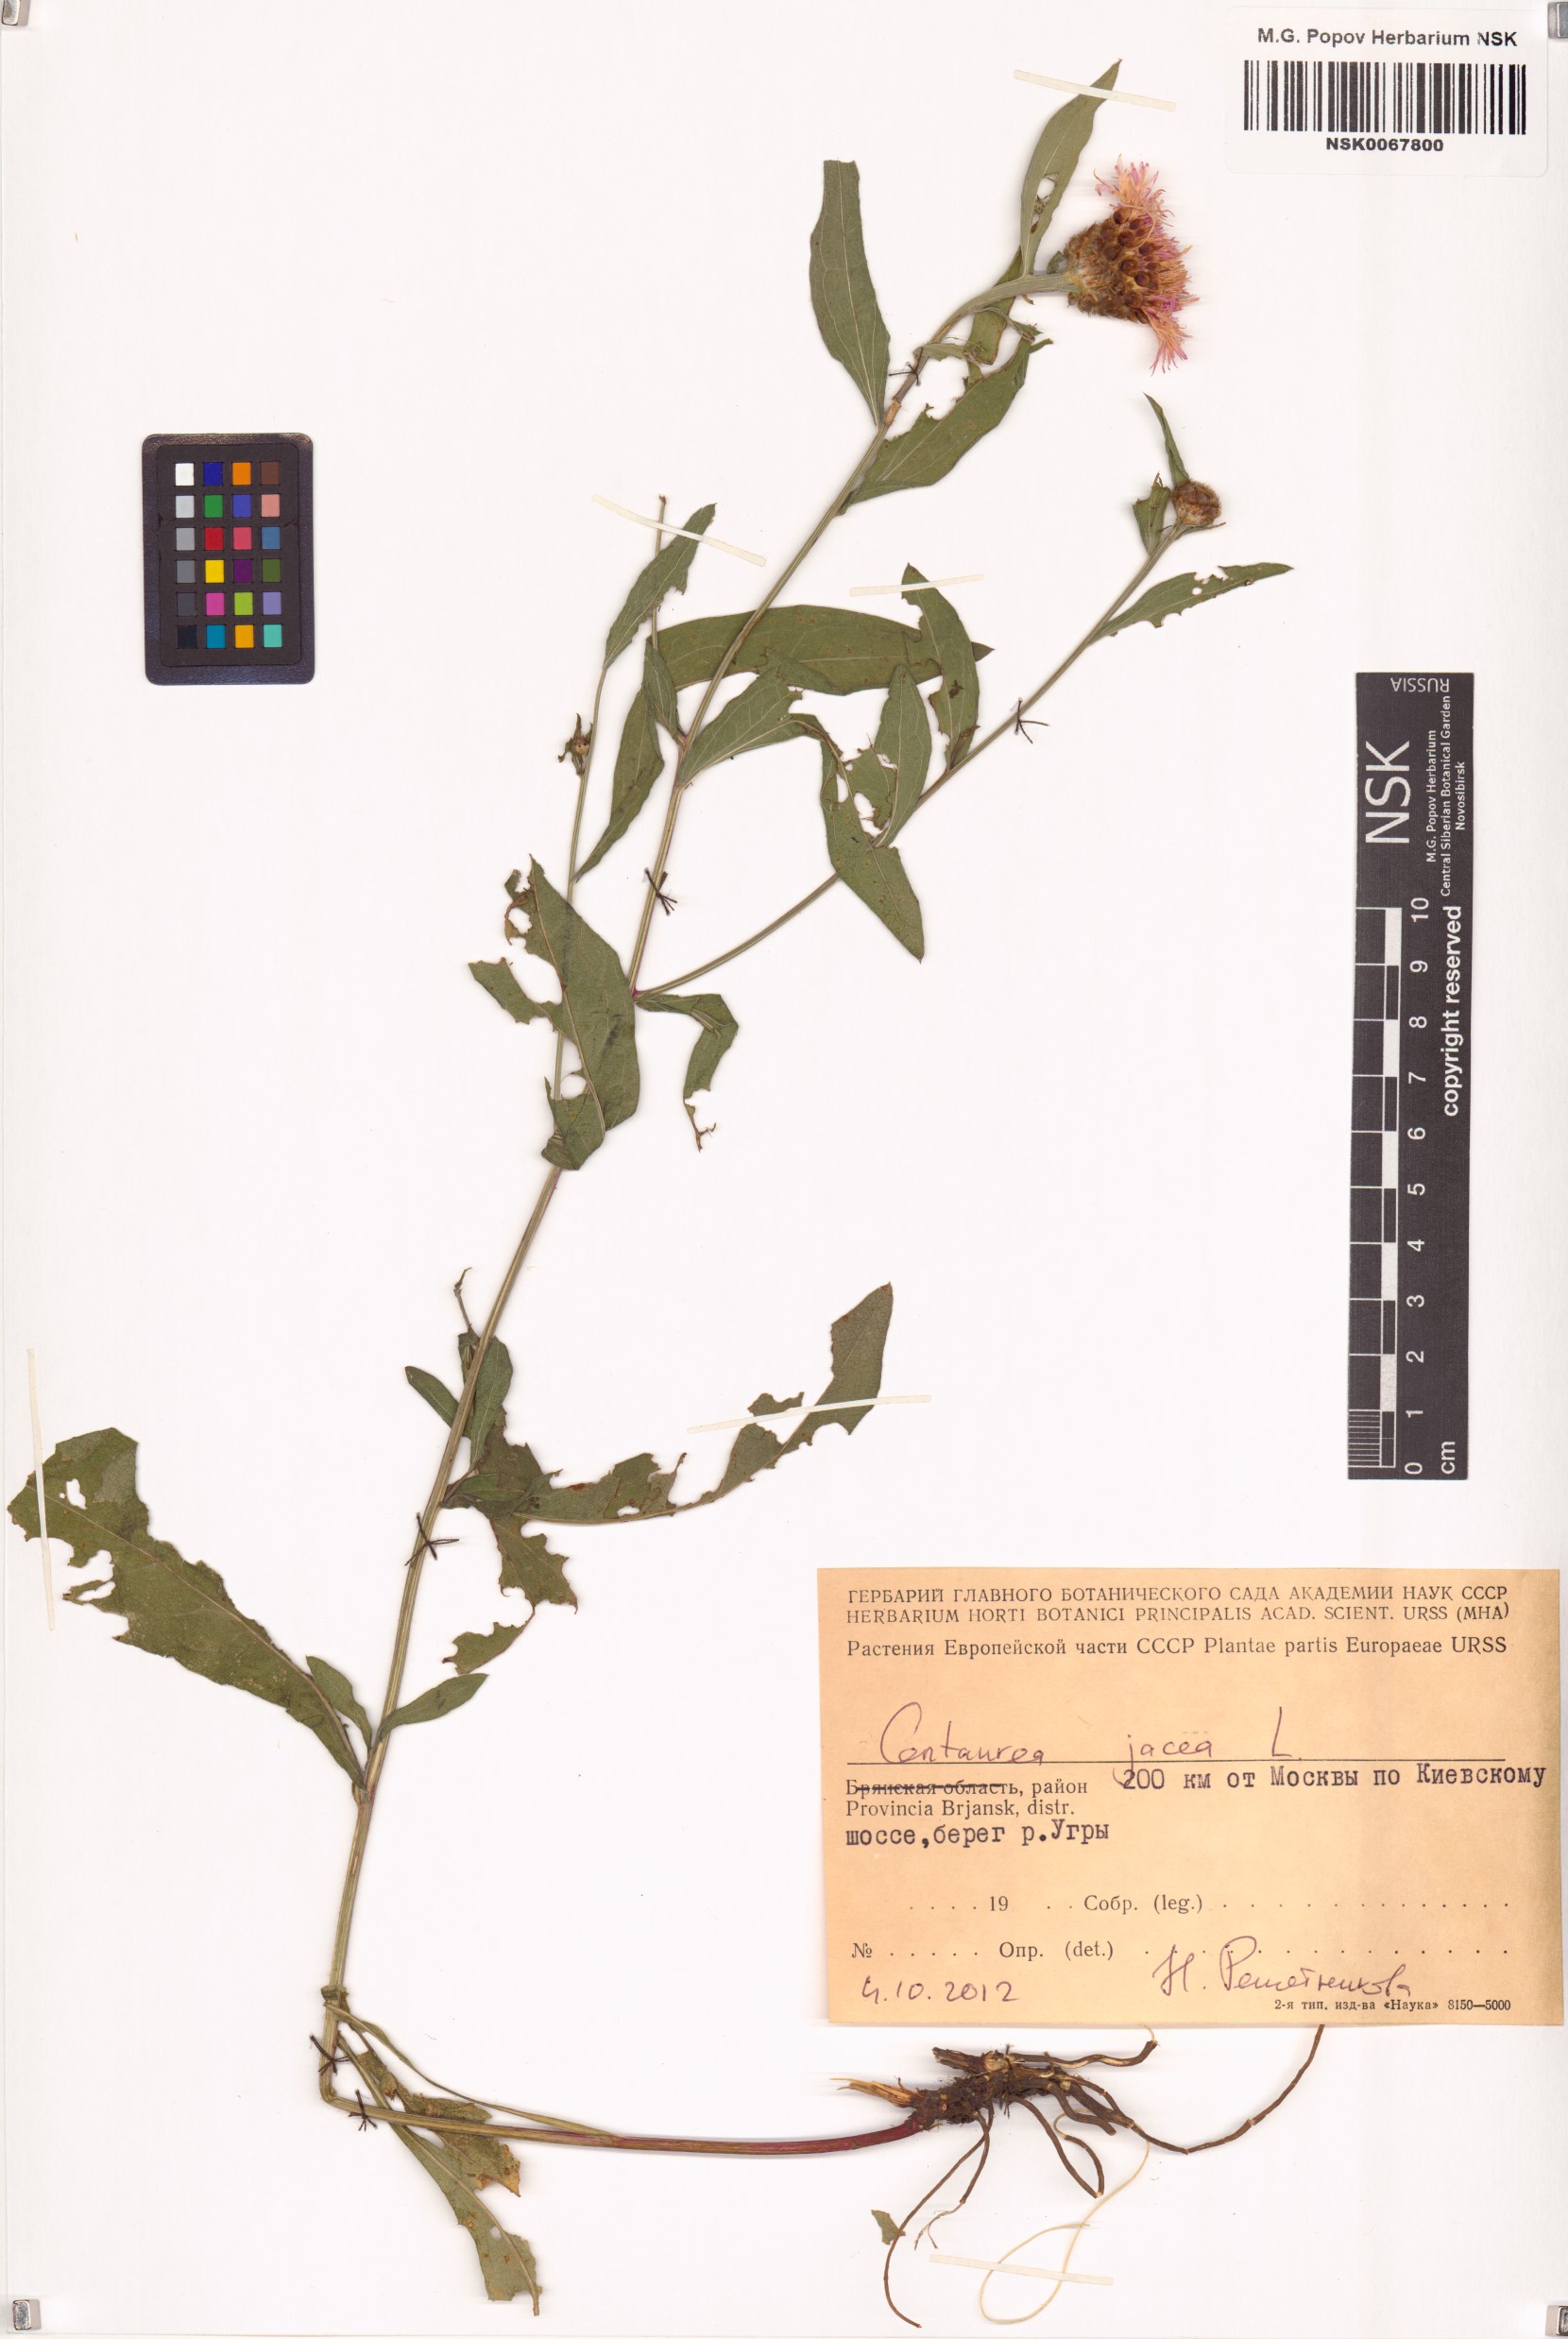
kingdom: Plantae
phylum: Tracheophyta
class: Magnoliopsida
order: Asterales
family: Asteraceae
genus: Centaurea
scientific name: Centaurea jacea
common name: Brown knapweed
